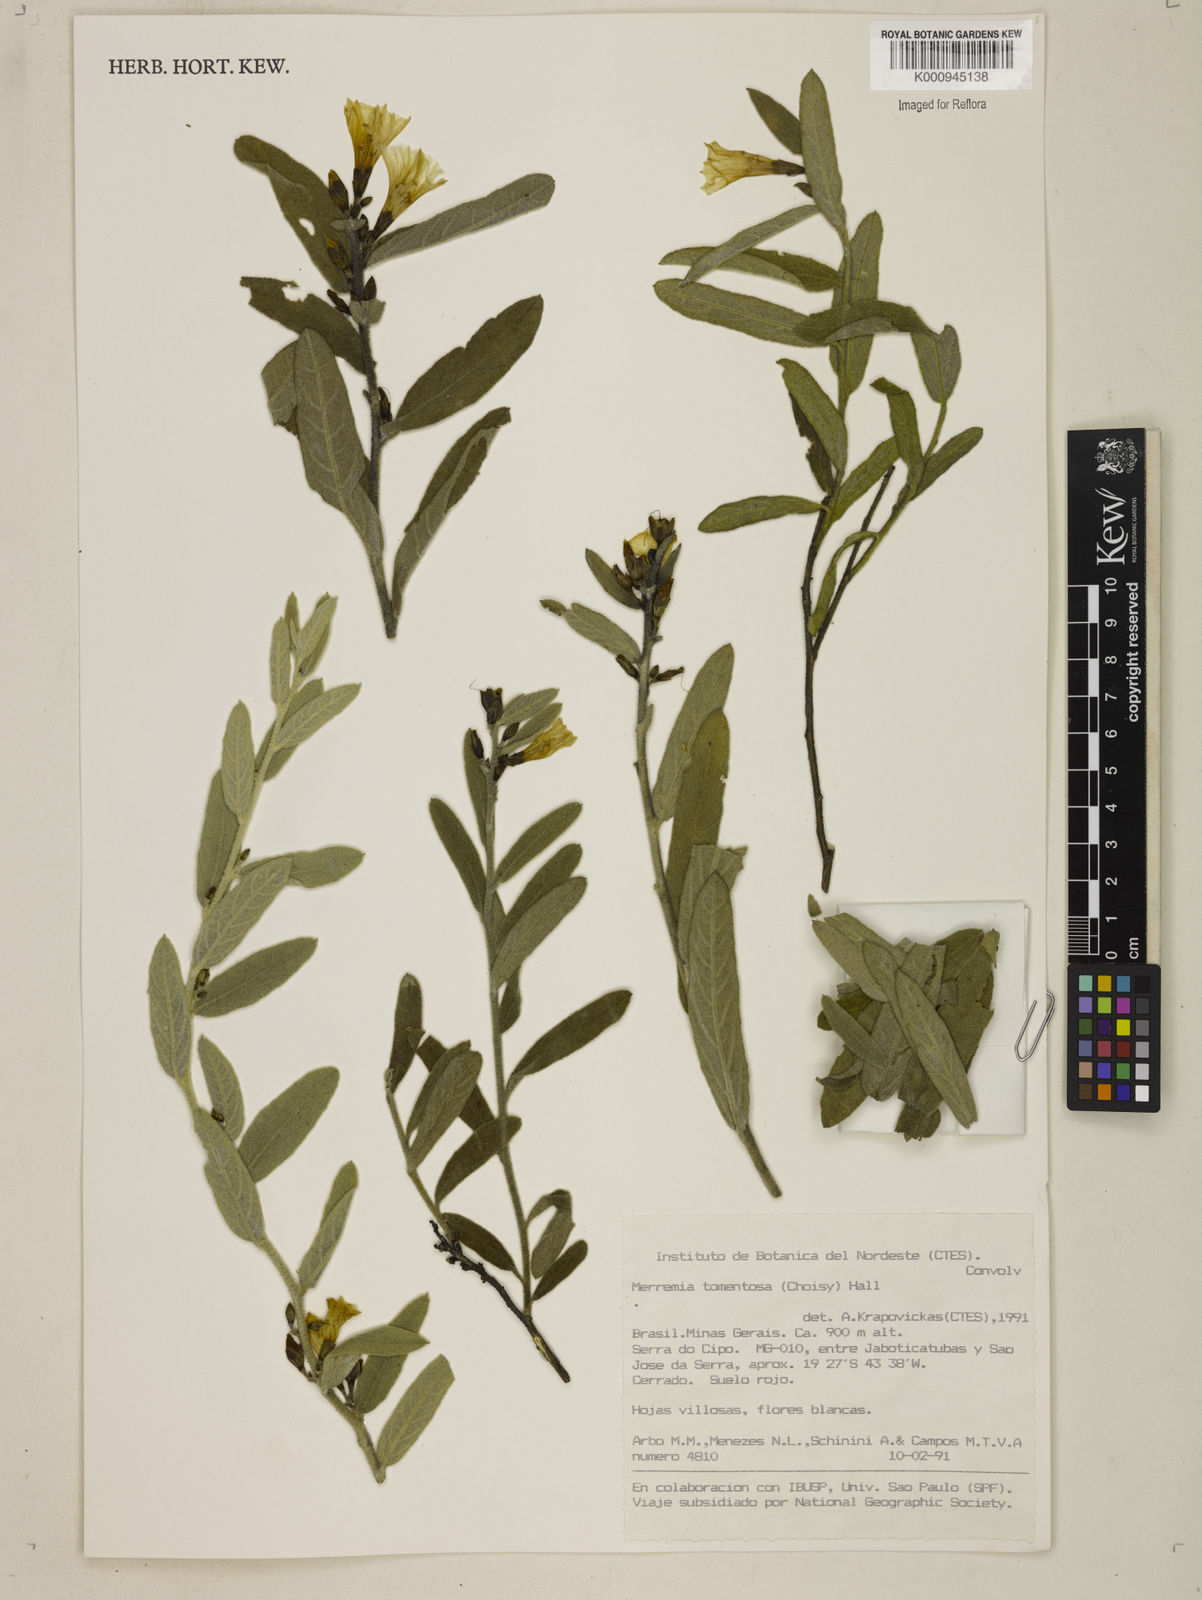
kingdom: Plantae
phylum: Tracheophyta
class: Magnoliopsida
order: Solanales
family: Convolvulaceae
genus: Distimake
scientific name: Distimake tomentosus
